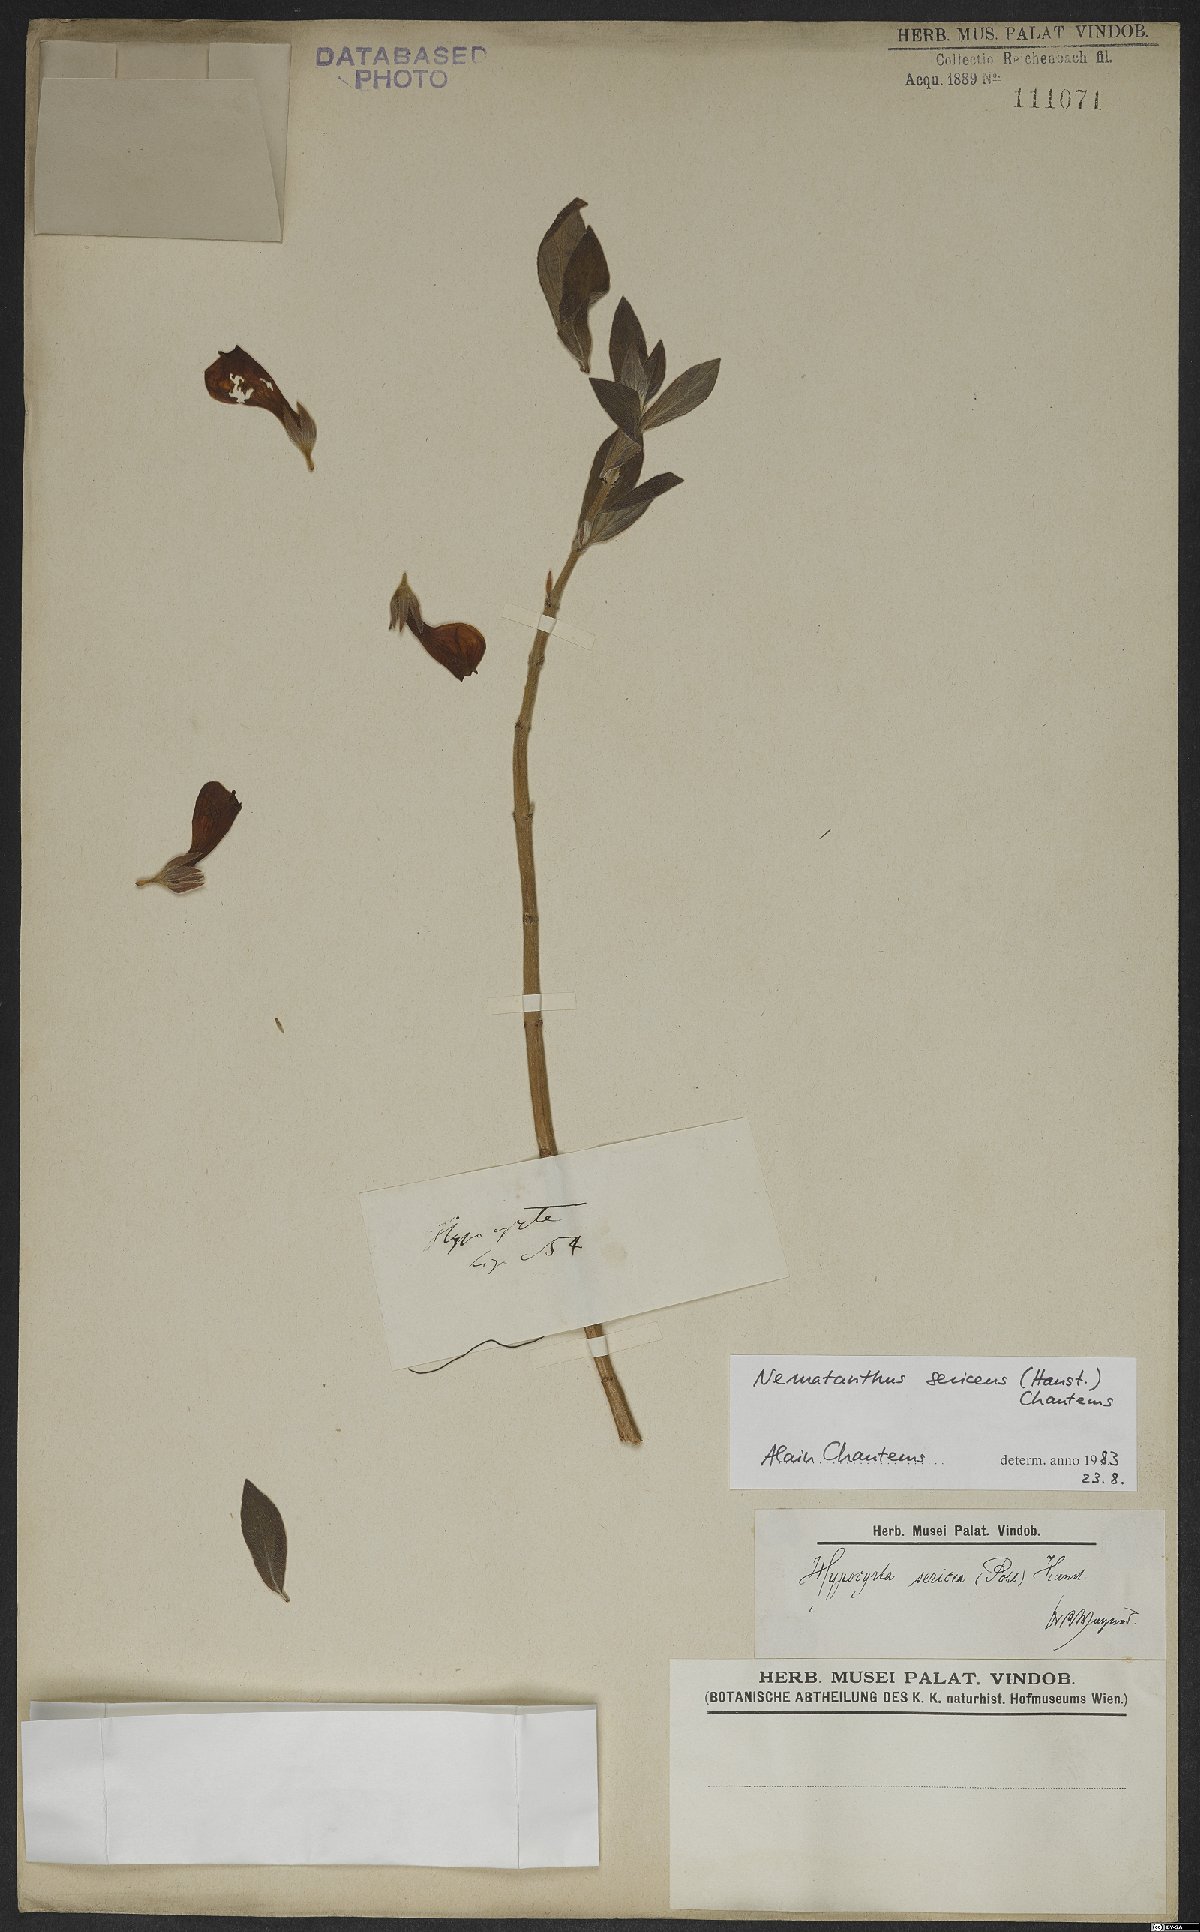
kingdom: Plantae
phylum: Tracheophyta
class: Magnoliopsida
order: Lamiales
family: Gesneriaceae
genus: Nematanthus
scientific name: Nematanthus sericeus
